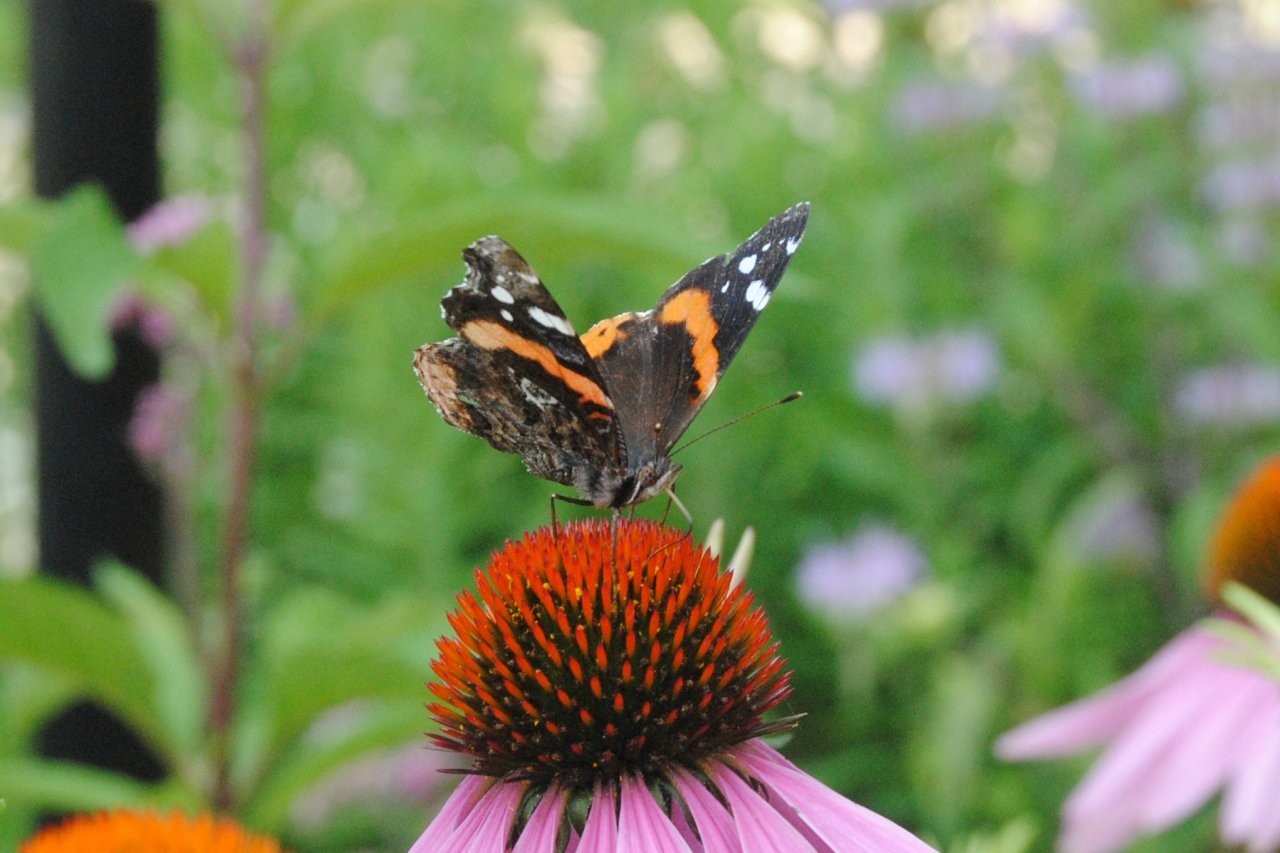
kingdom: Animalia
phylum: Arthropoda
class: Insecta
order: Lepidoptera
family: Nymphalidae
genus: Vanessa
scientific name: Vanessa atalanta
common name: Red Admiral
